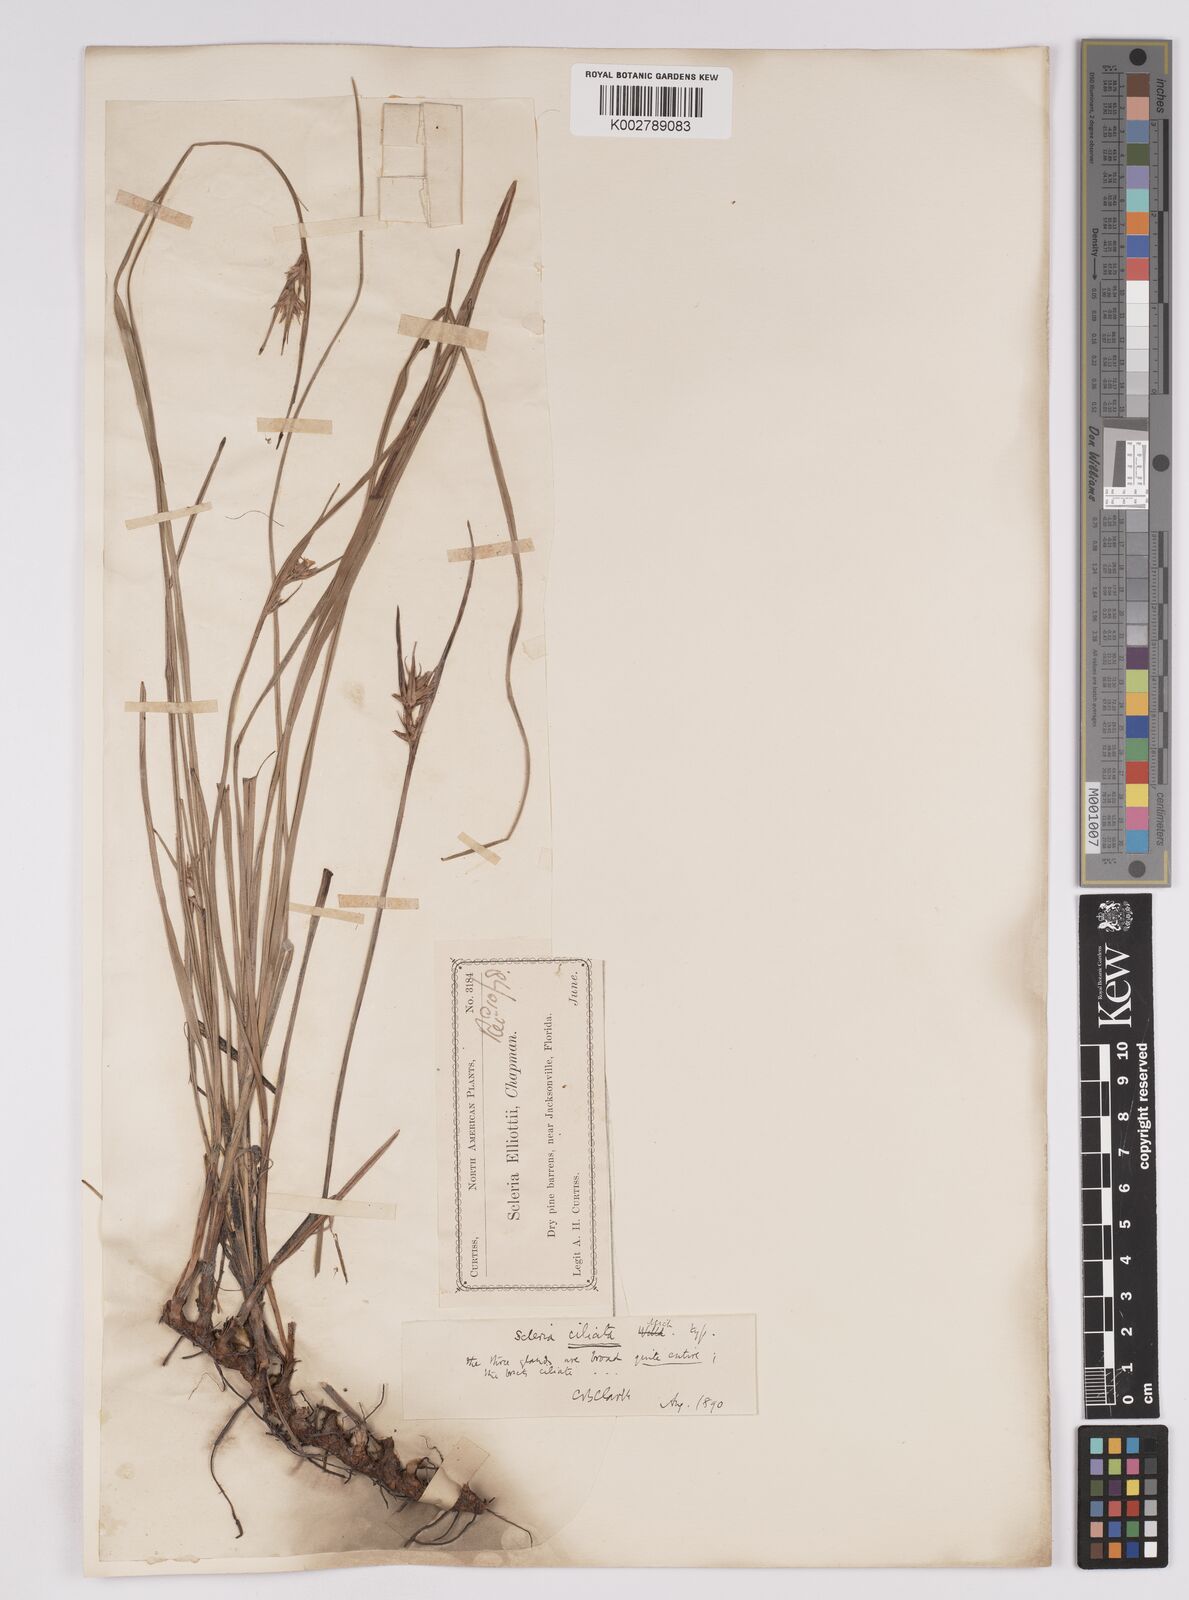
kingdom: Plantae
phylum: Tracheophyta
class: Liliopsida
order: Poales
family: Cyperaceae
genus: Scleria
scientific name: Scleria ciliata
